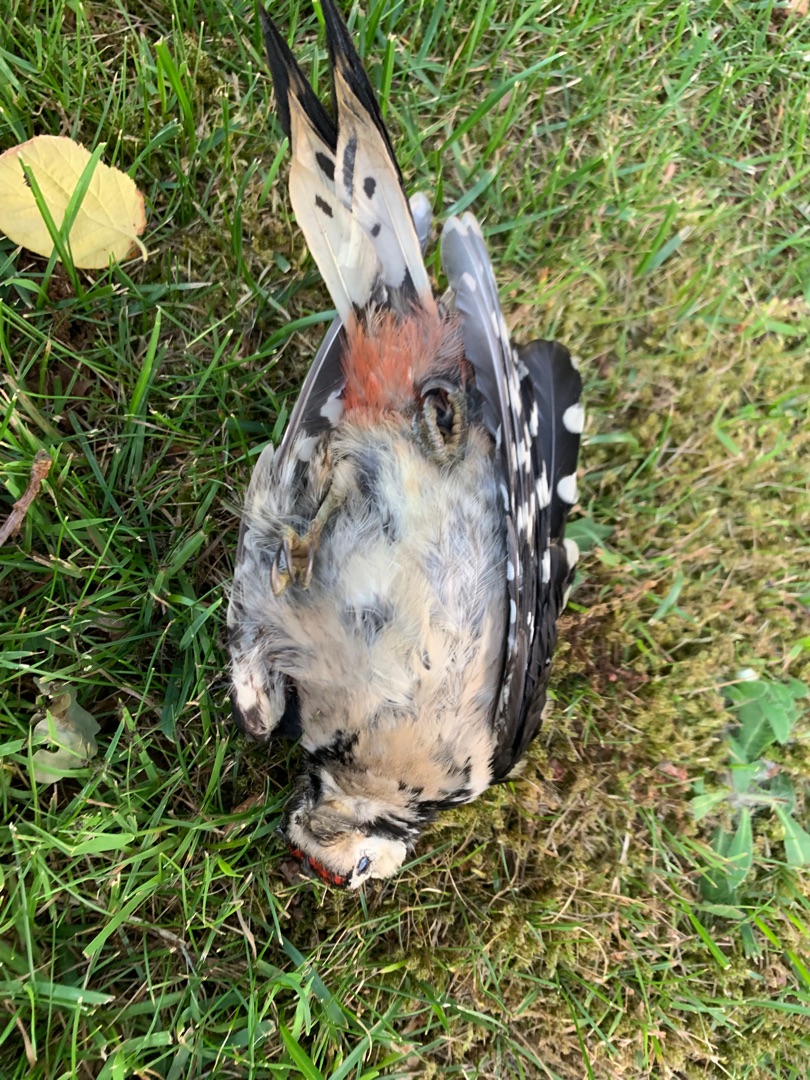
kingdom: Animalia
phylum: Chordata
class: Aves
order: Piciformes
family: Picidae
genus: Dendrocopos
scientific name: Dendrocopos major
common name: Stor flagspætte
